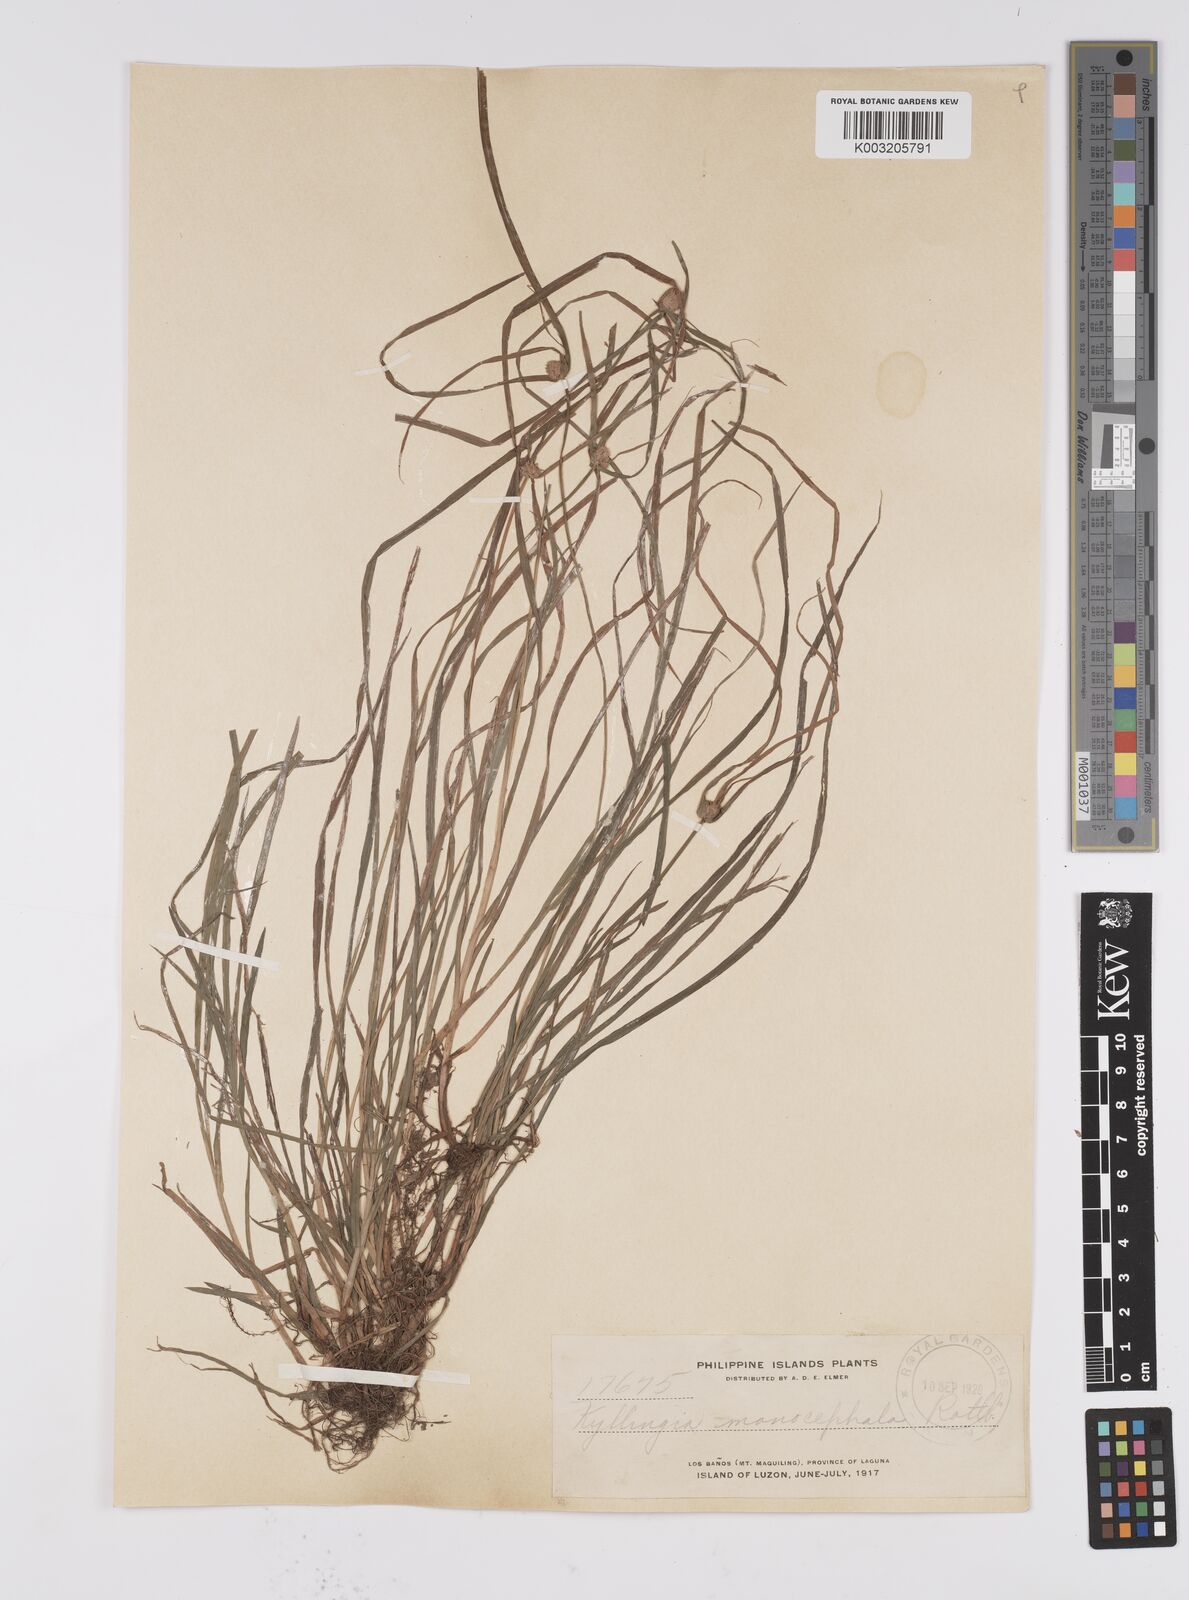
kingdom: Plantae
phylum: Tracheophyta
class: Liliopsida
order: Poales
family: Cyperaceae
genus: Cyperus
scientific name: Cyperus nemoralis
